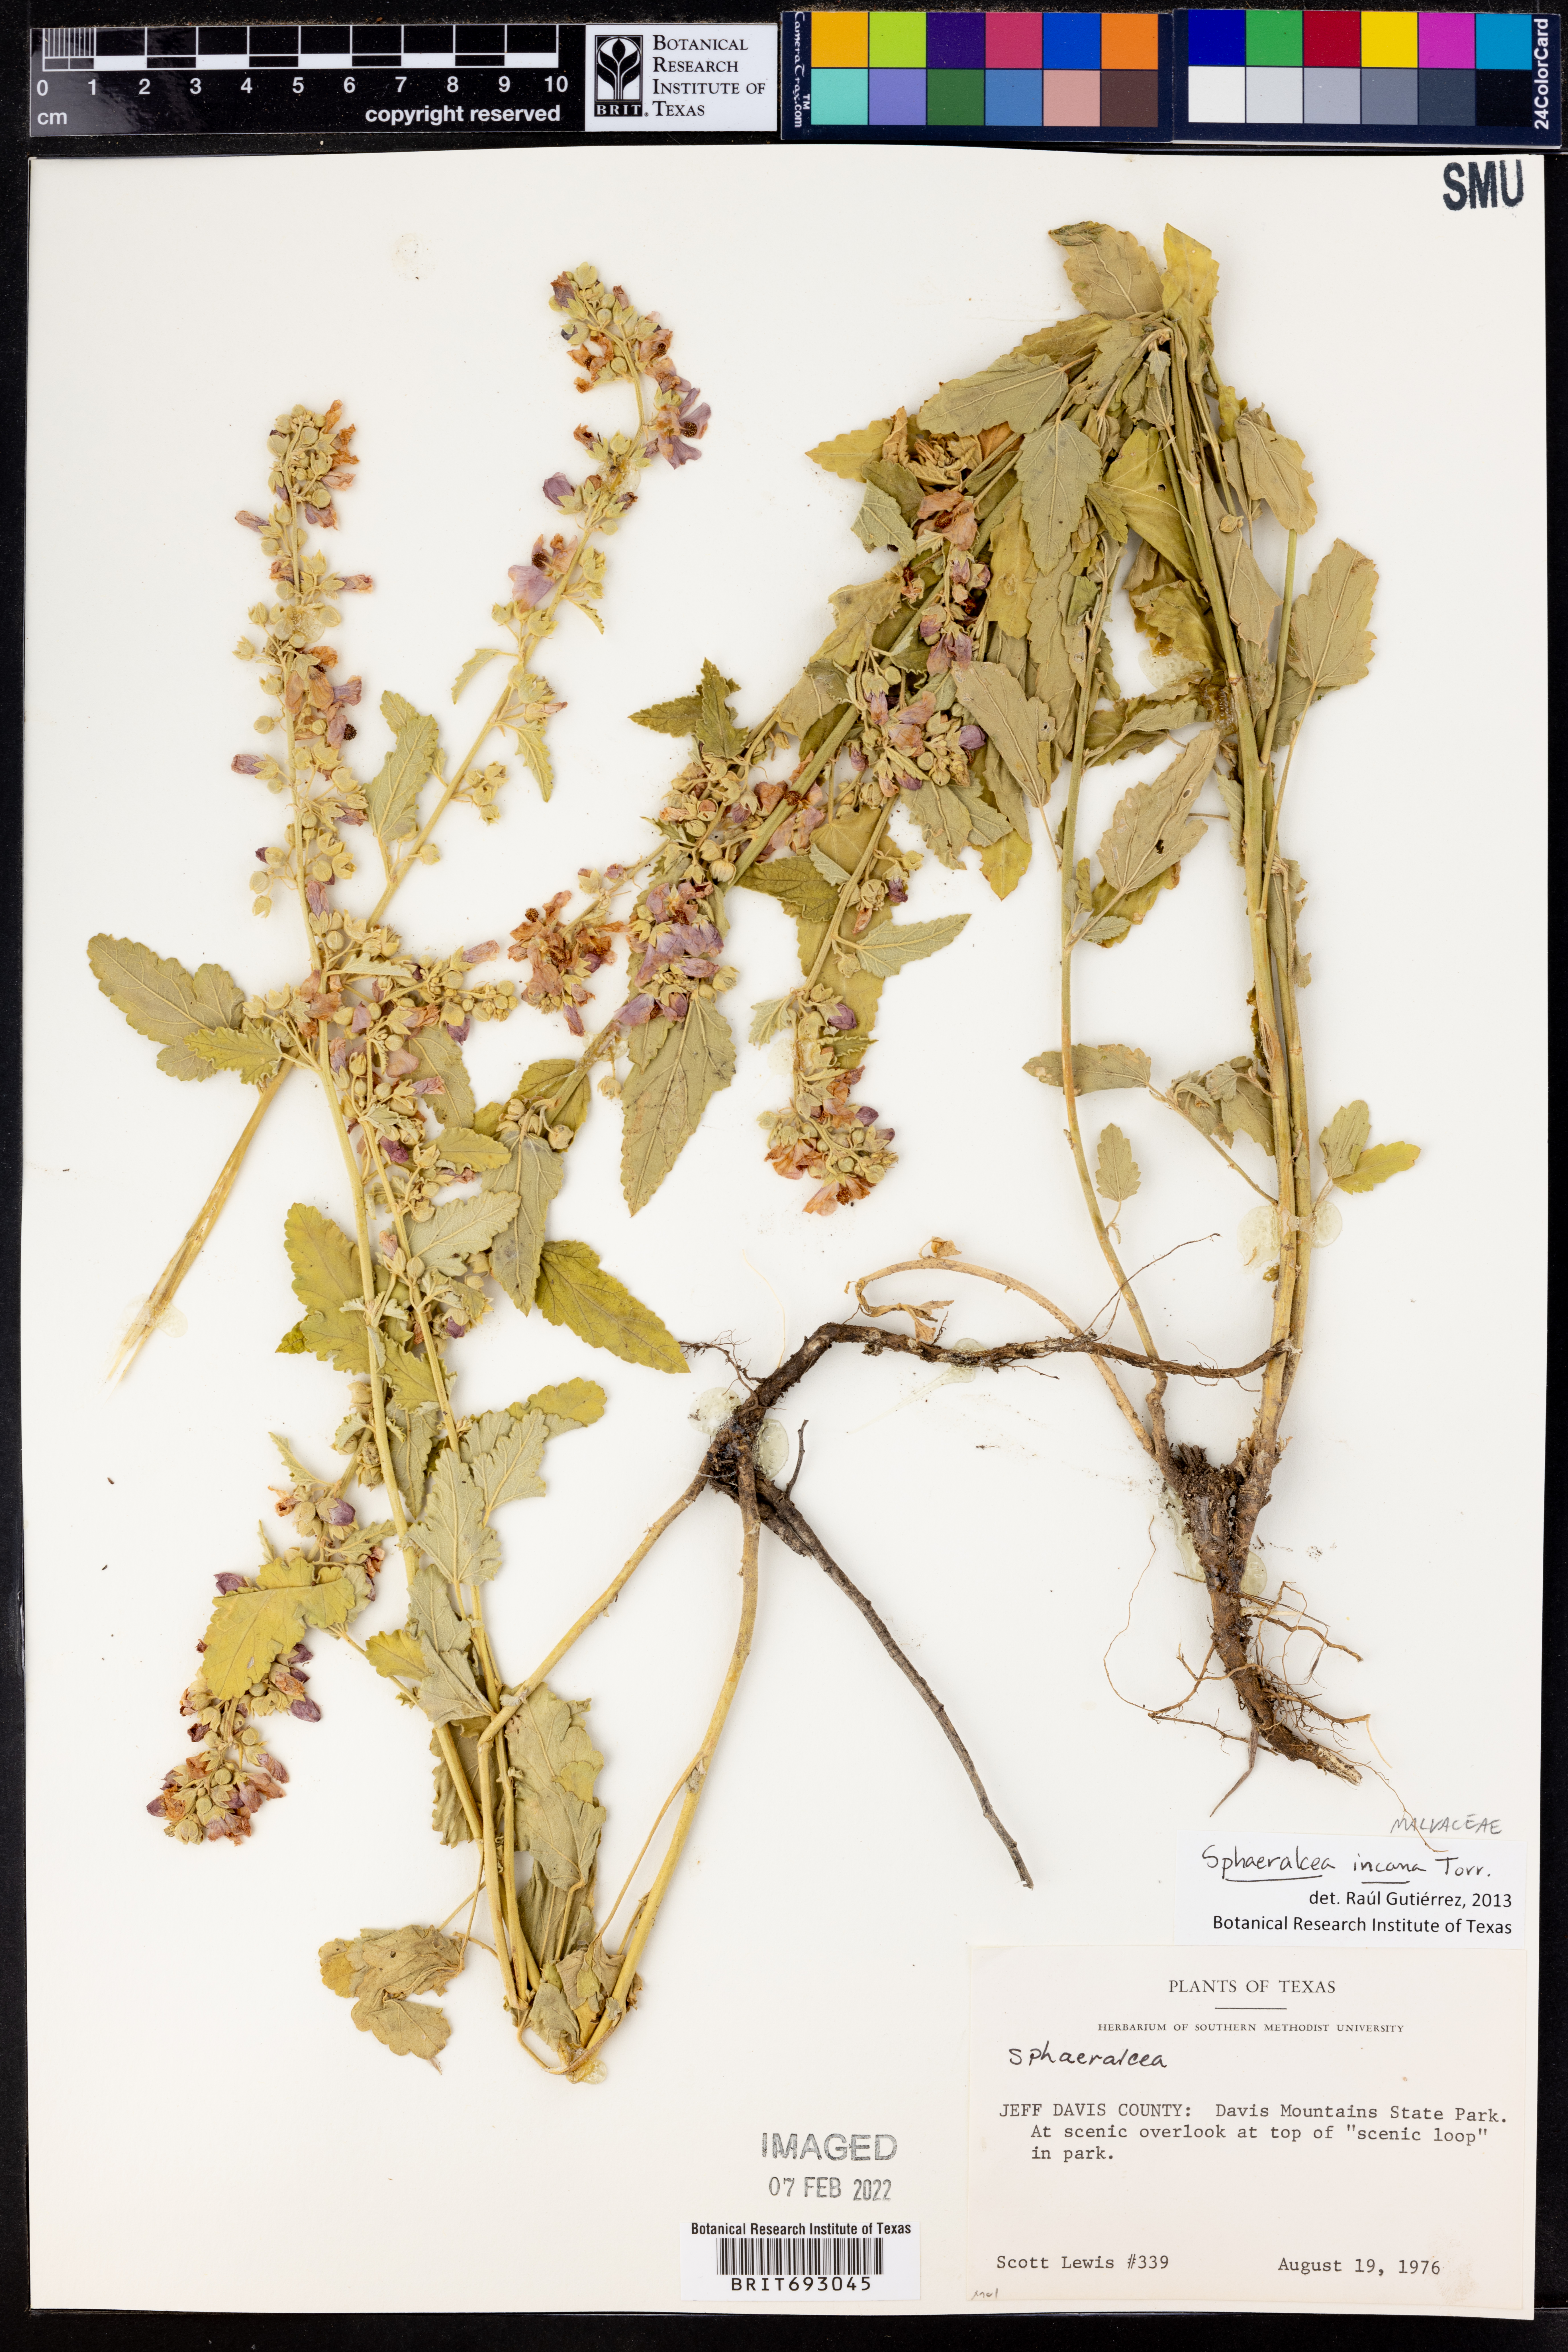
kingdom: Plantae
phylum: Tracheophyta
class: Magnoliopsida
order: Malvales
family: Malvaceae
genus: Sphaeralcea
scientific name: Sphaeralcea incana
